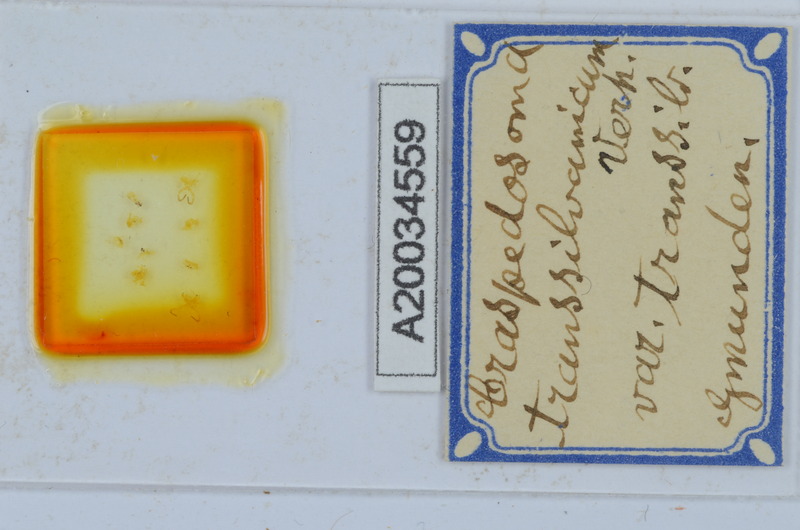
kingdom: Animalia
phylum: Arthropoda
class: Diplopoda
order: Chordeumatida
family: Craspedosomatidae
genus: Craspedosoma
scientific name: Craspedosoma rawlinsii
